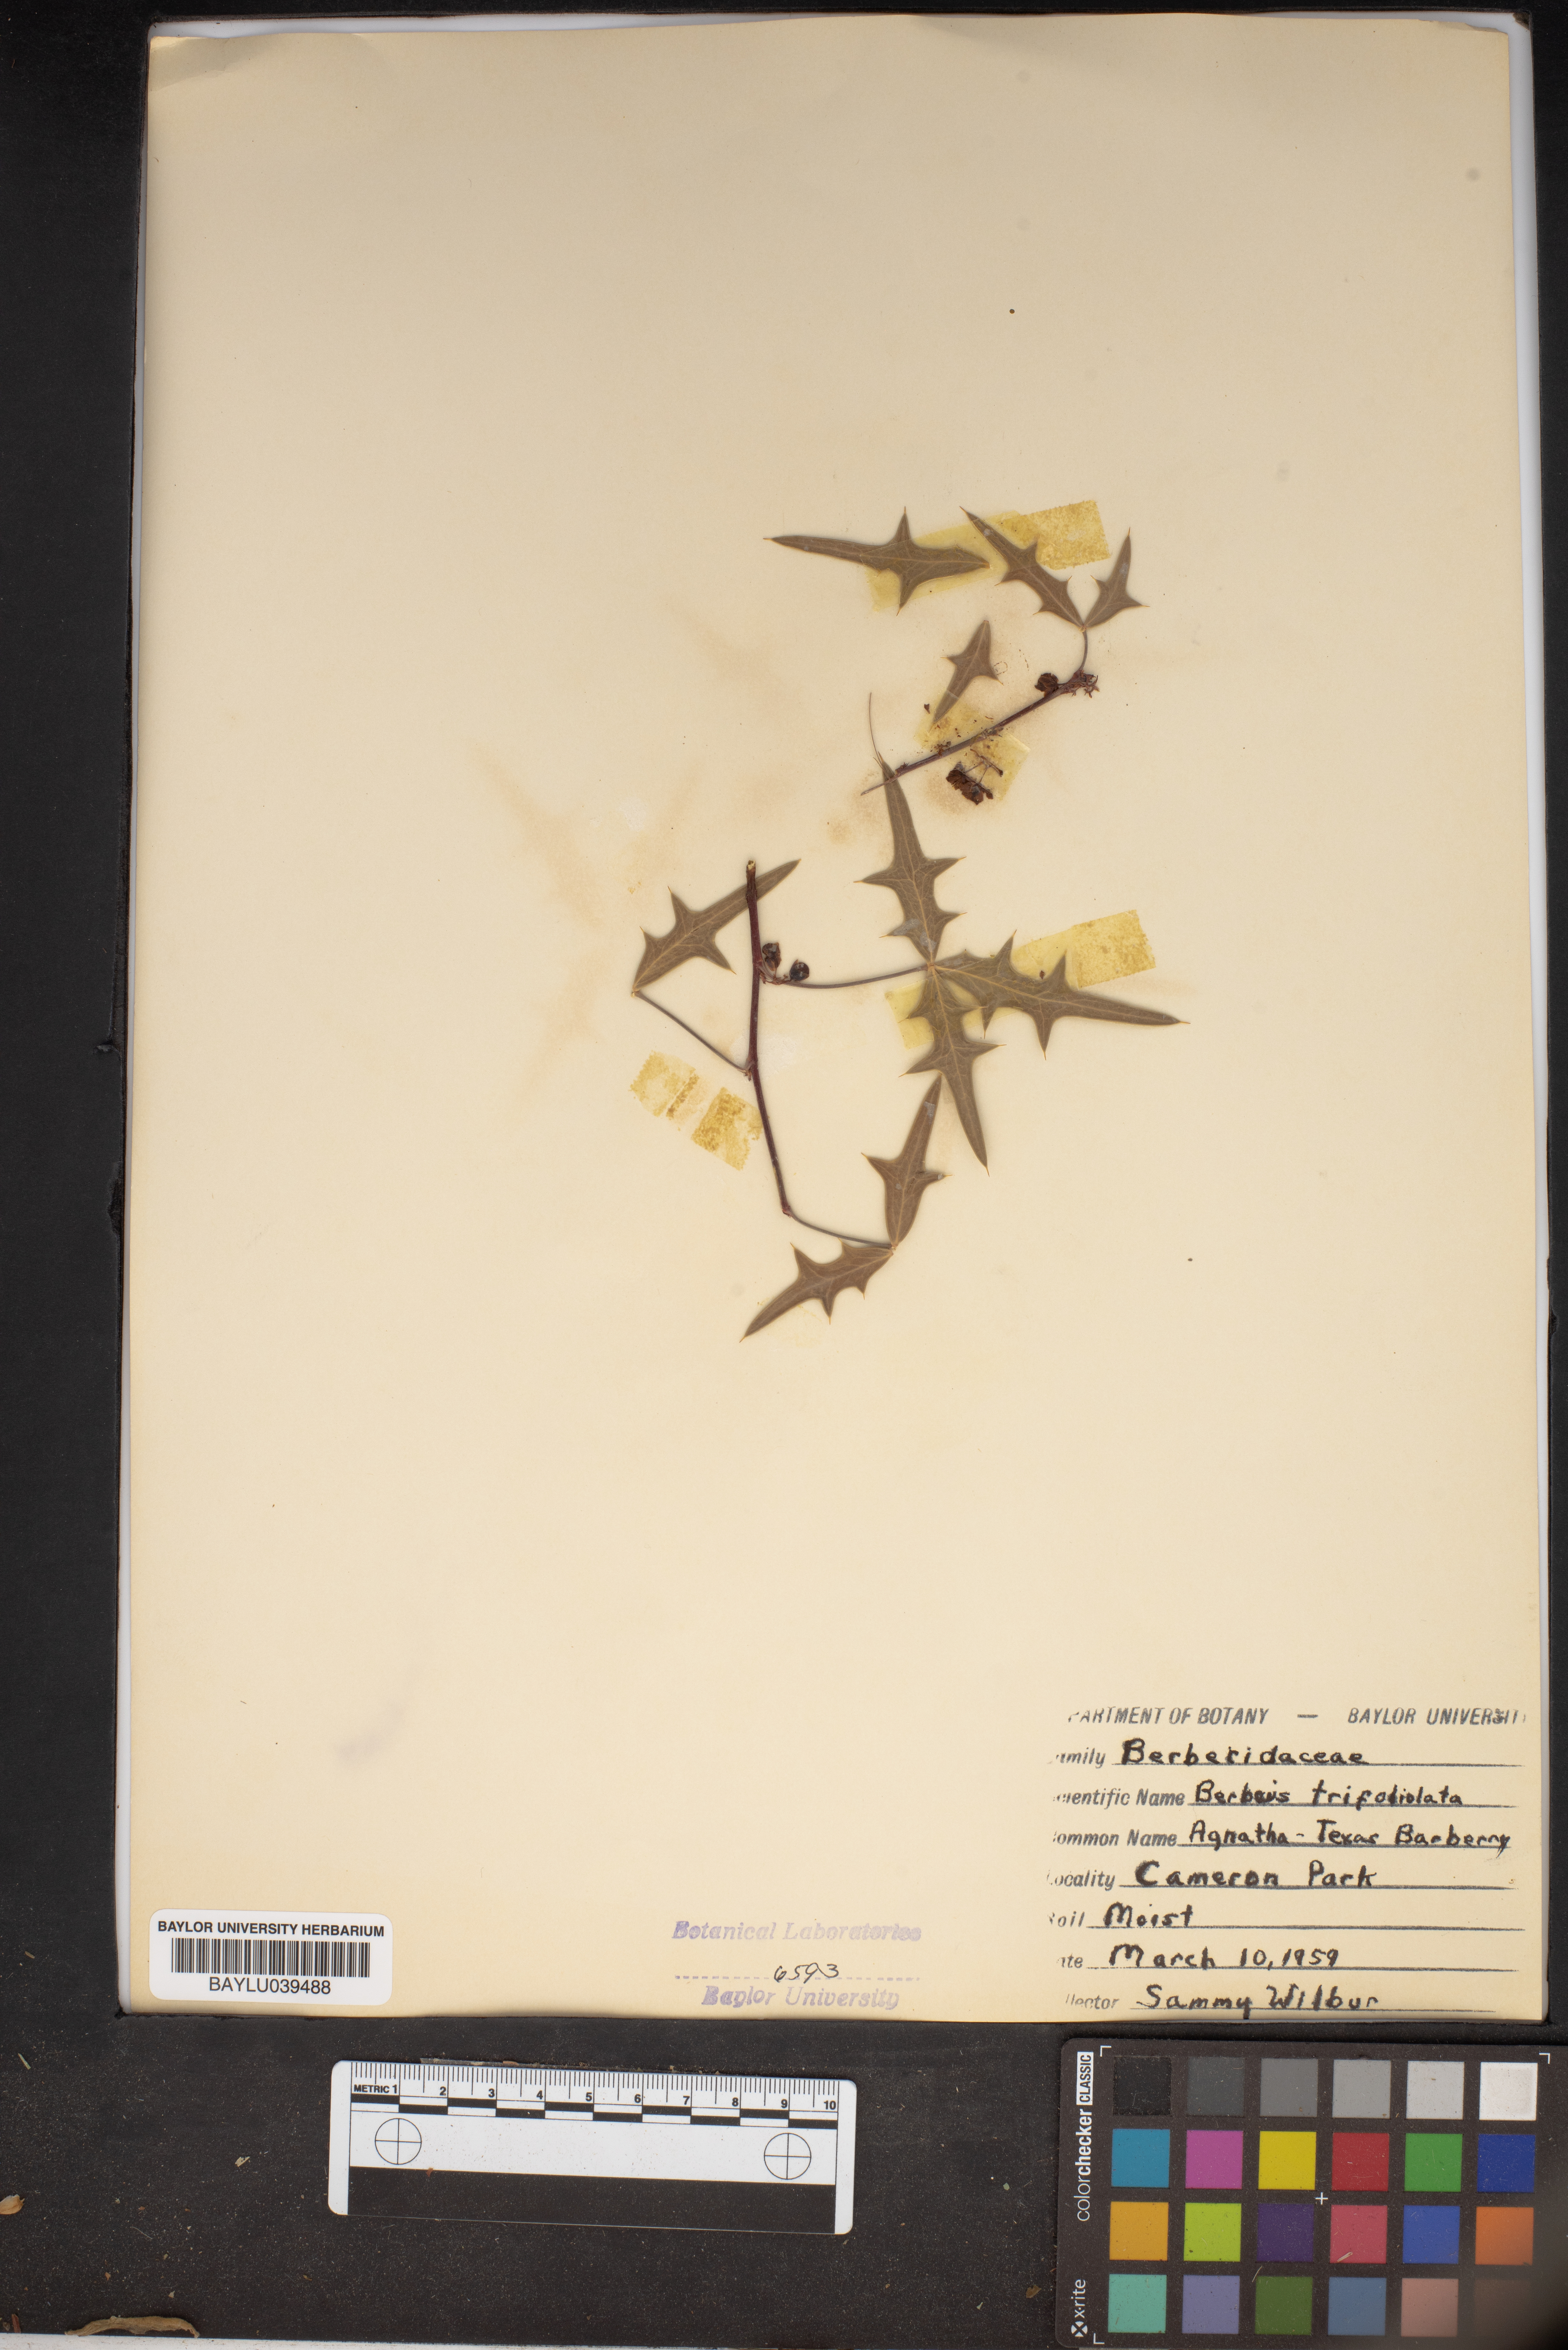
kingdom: Plantae
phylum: Tracheophyta
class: Magnoliopsida
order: Ranunculales
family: Berberidaceae
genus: Alloberberis
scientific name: Alloberberis trifoliolata
